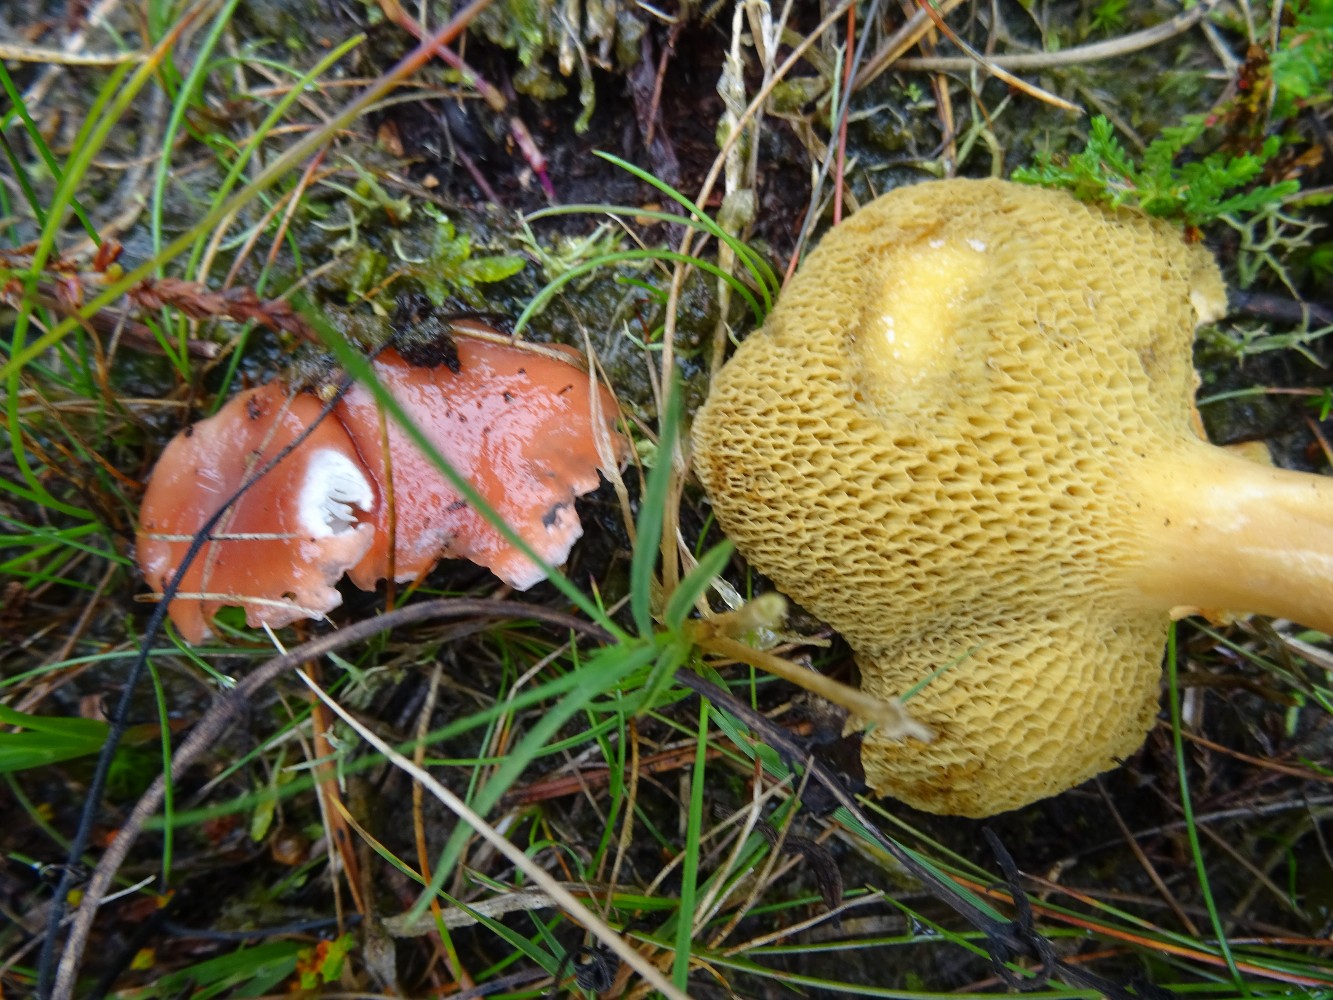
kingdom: Fungi
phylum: Basidiomycota
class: Agaricomycetes
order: Boletales
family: Gomphidiaceae
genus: Gomphidius
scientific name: Gomphidius roseus
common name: rosenrød slimslør
